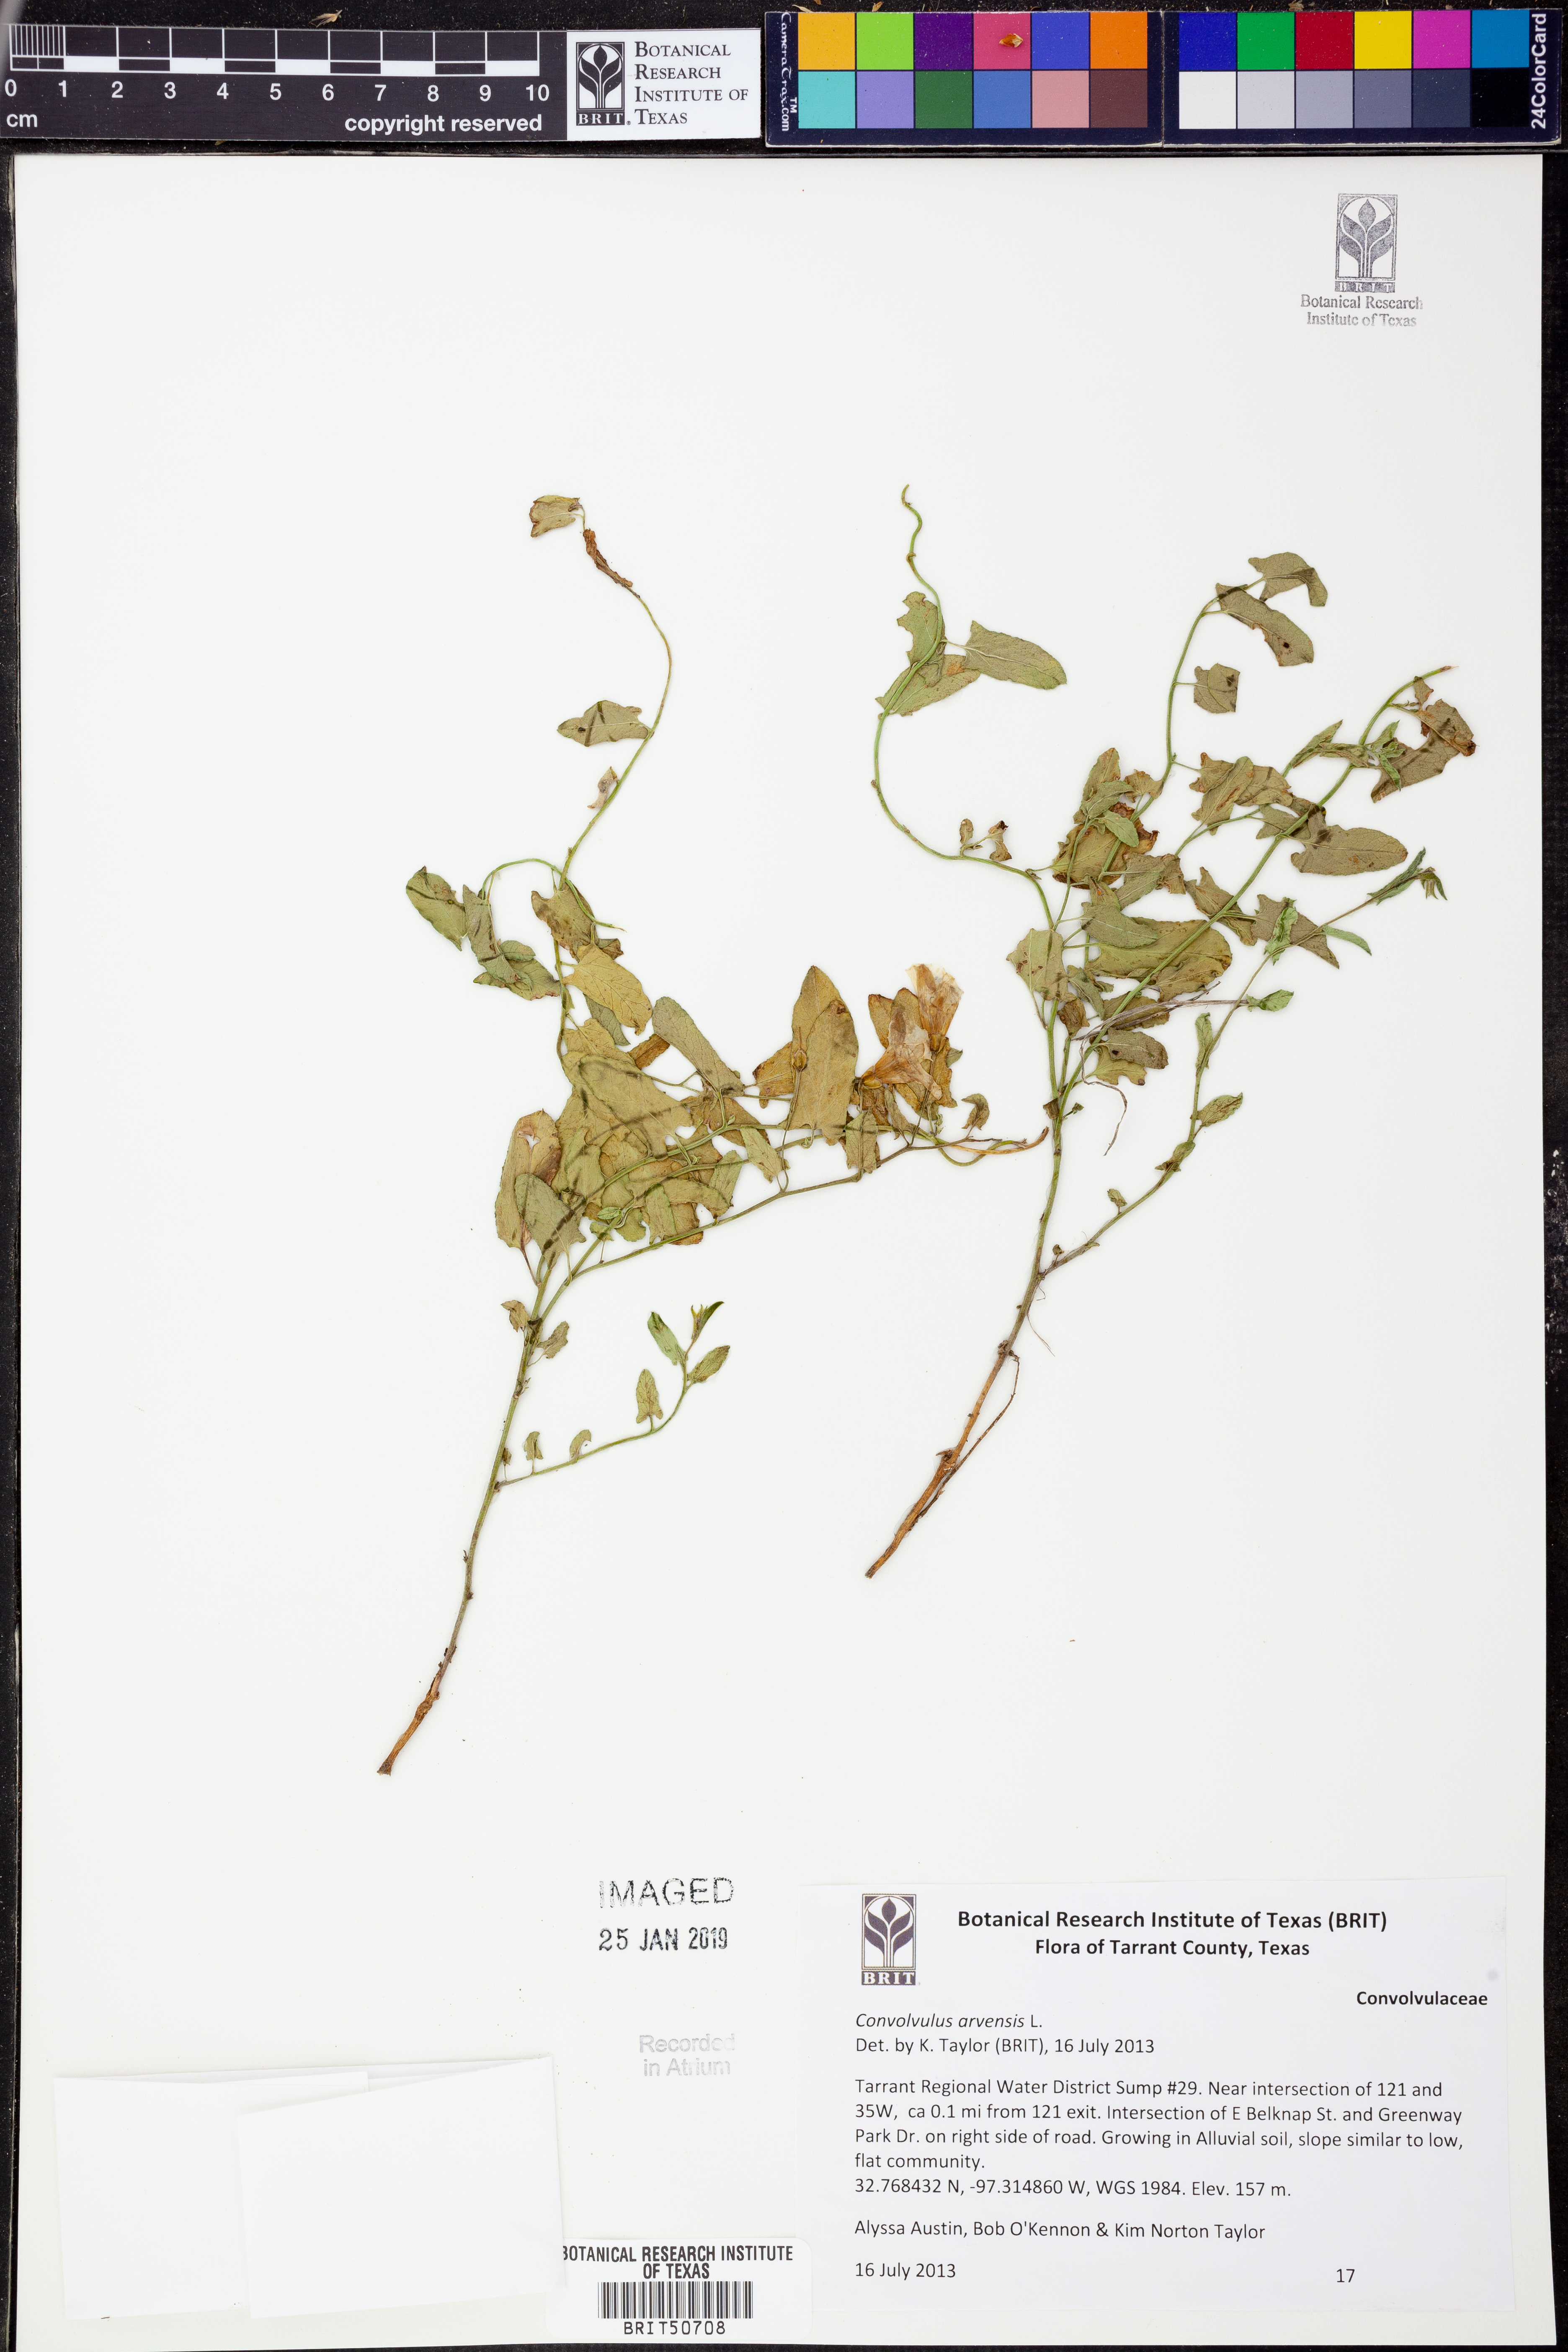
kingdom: Plantae
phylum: Tracheophyta
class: Magnoliopsida
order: Solanales
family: Convolvulaceae
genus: Convolvulus
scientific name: Convolvulus arvensis
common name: Field bindweed
